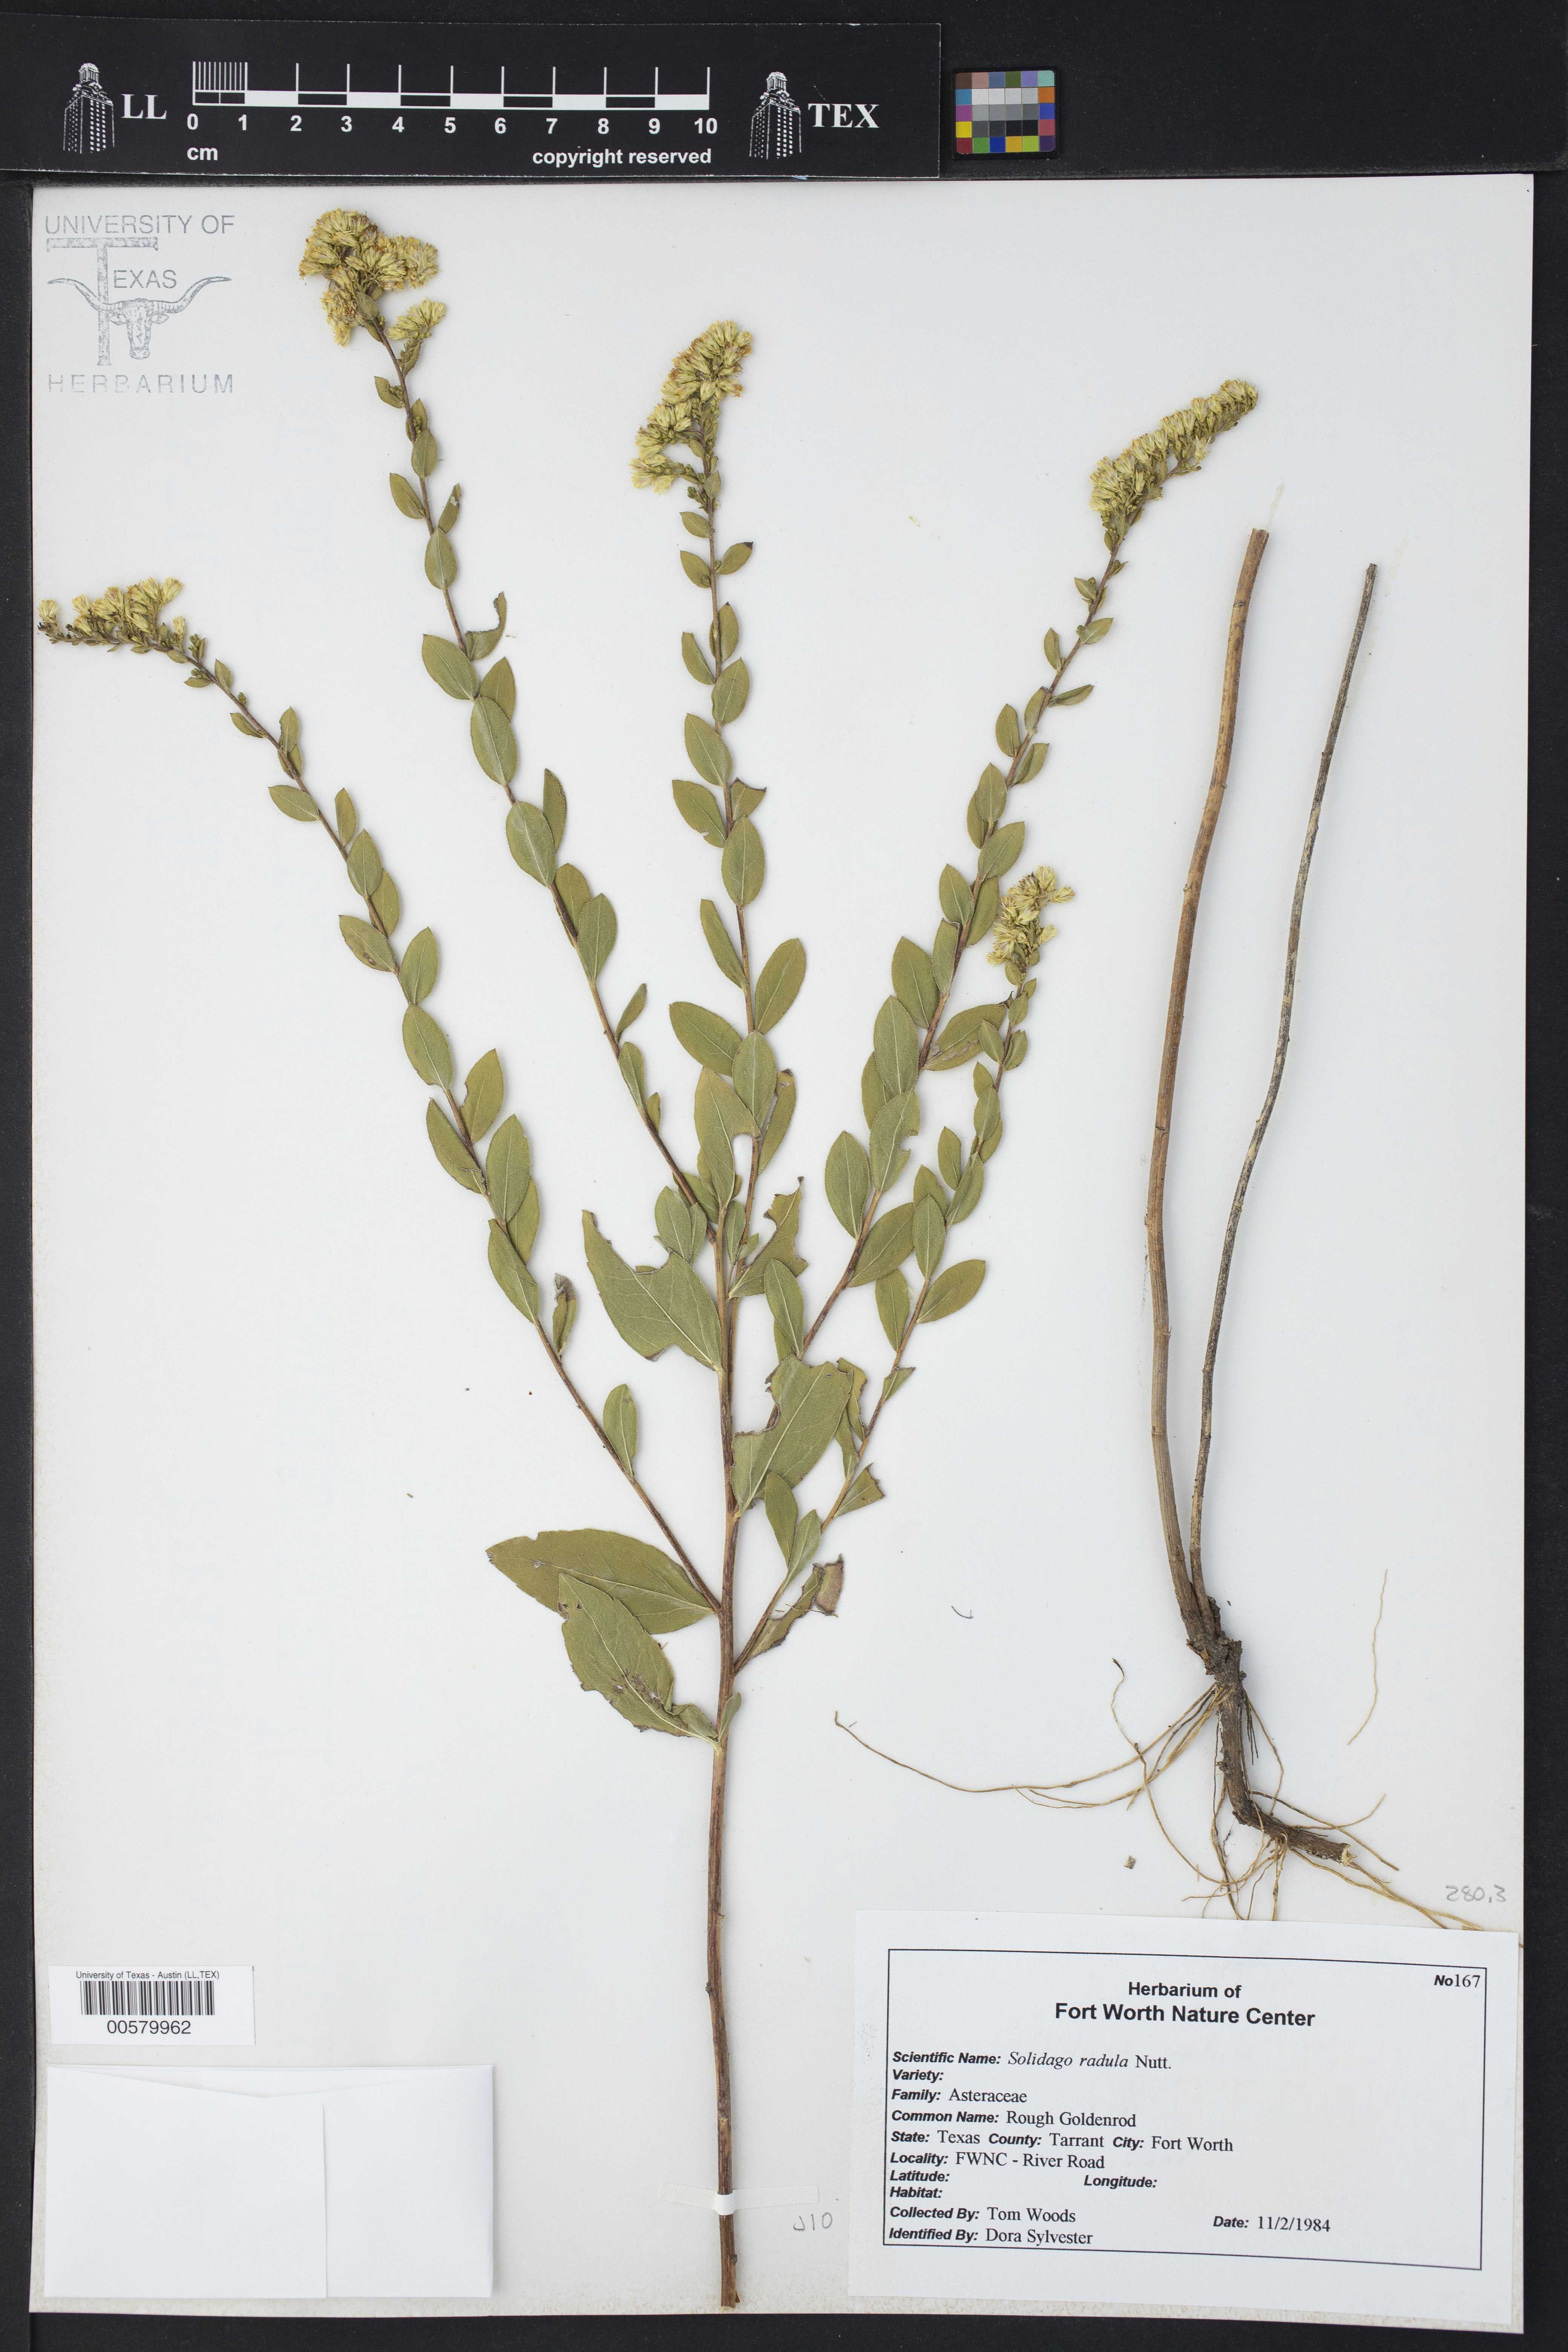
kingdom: Plantae
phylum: Tracheophyta
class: Magnoliopsida
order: Asterales
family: Asteraceae
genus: Solidago
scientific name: Solidago radula
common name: Western rough goldenrod
